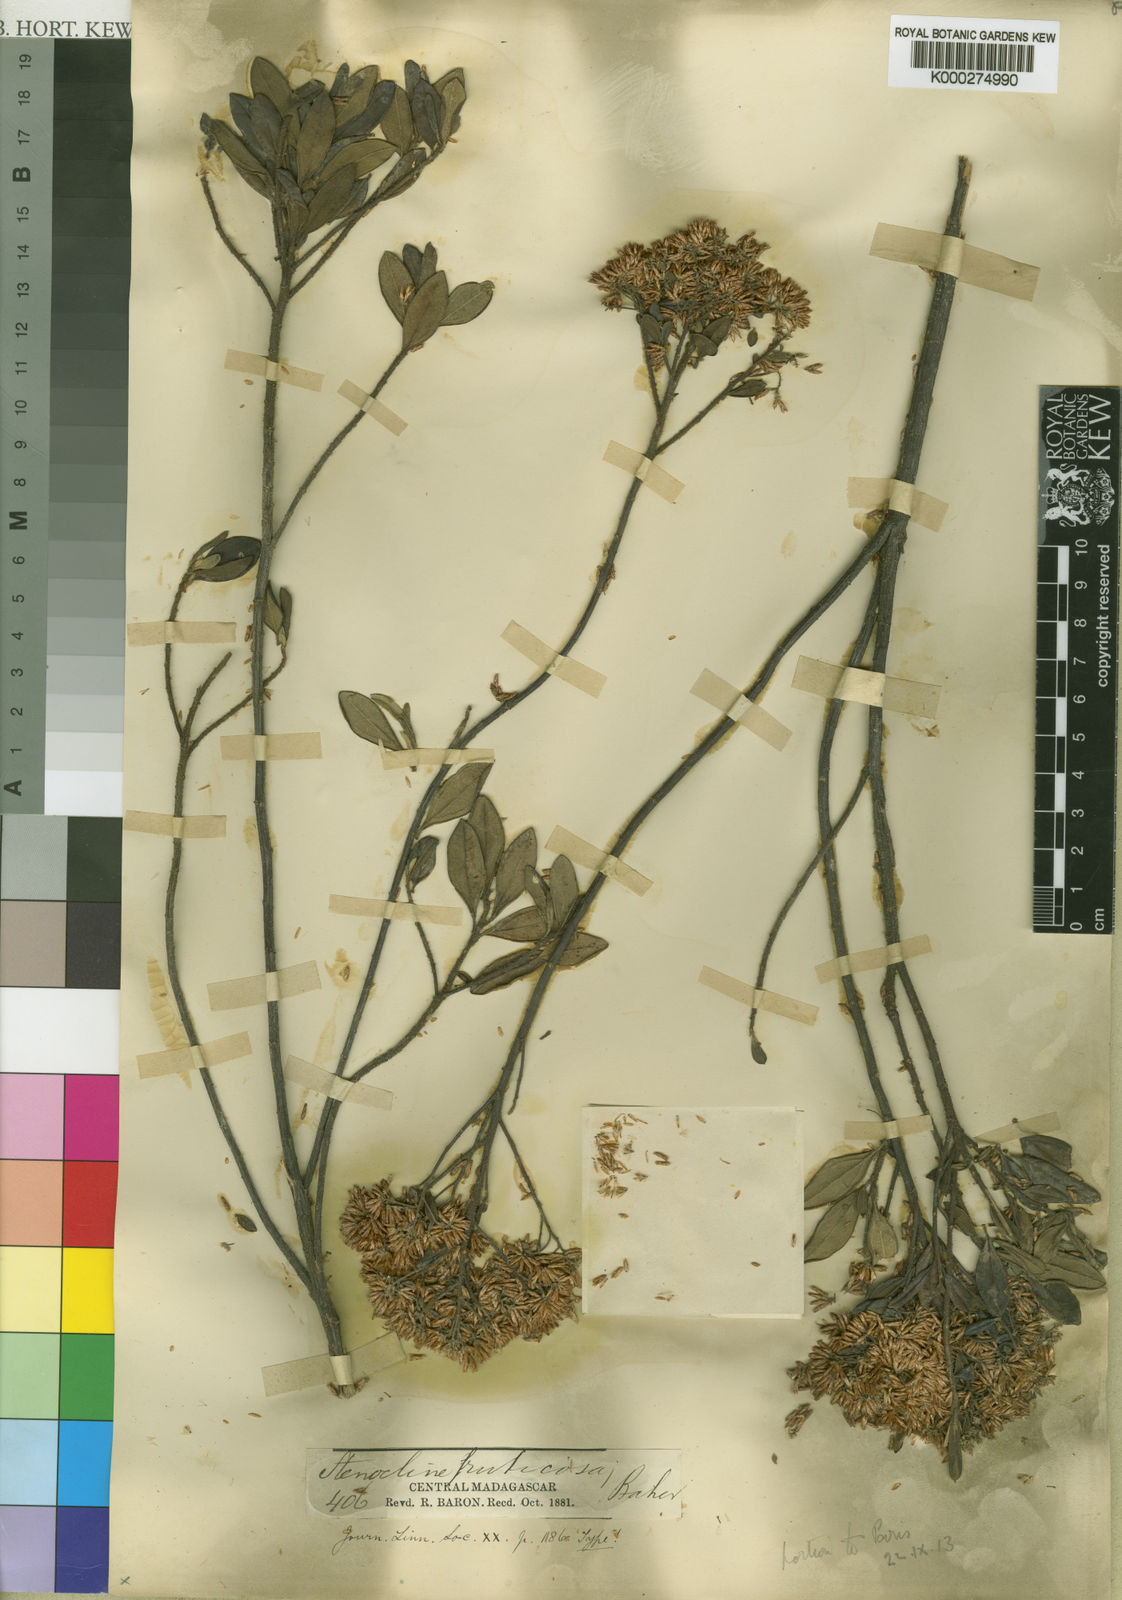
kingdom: Plantae
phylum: Tracheophyta
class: Magnoliopsida
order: Asterales
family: Asteraceae
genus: Helichrysum
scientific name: Helichrysum baronii
